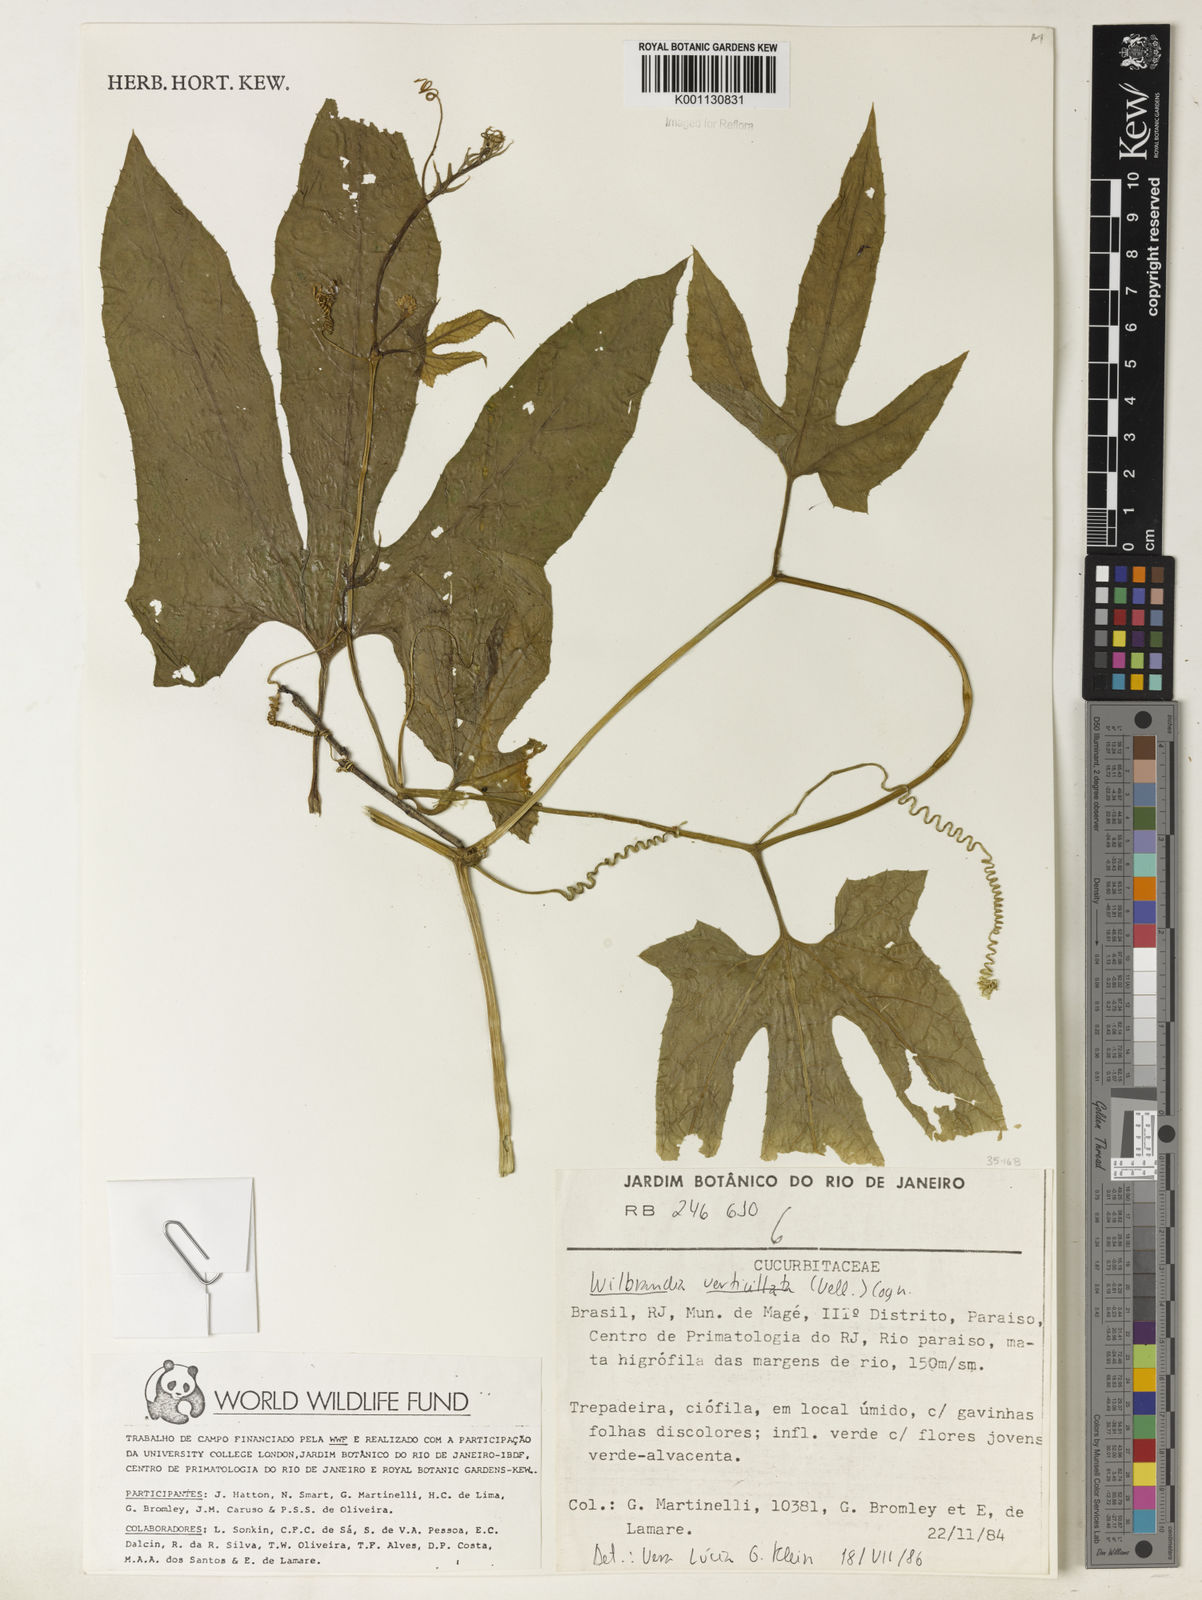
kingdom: Plantae
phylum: Tracheophyta
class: Magnoliopsida
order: Cucurbitales
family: Cucurbitaceae
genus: Wilbrandia
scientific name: Wilbrandia verticillata
